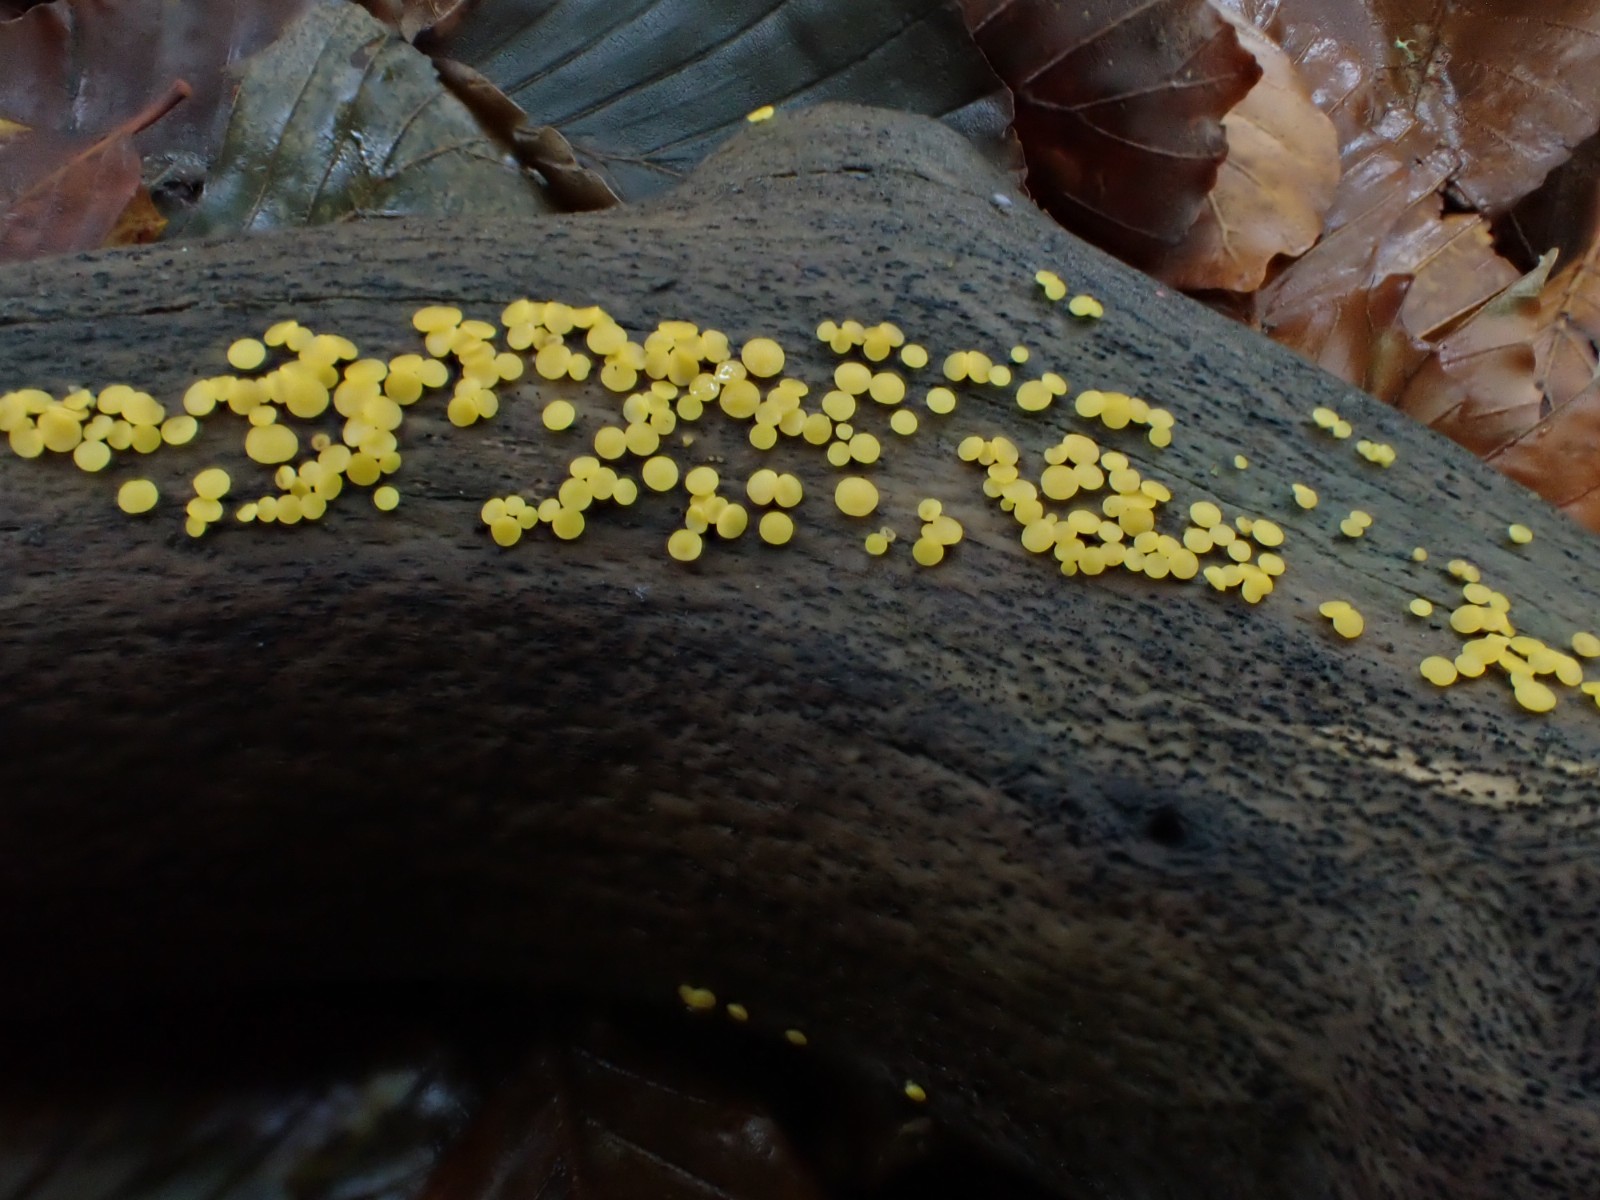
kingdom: Fungi
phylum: Ascomycota
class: Leotiomycetes
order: Helotiales
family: Pezizellaceae
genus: Calycina
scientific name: Calycina citrina
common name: almindelig gulskive
